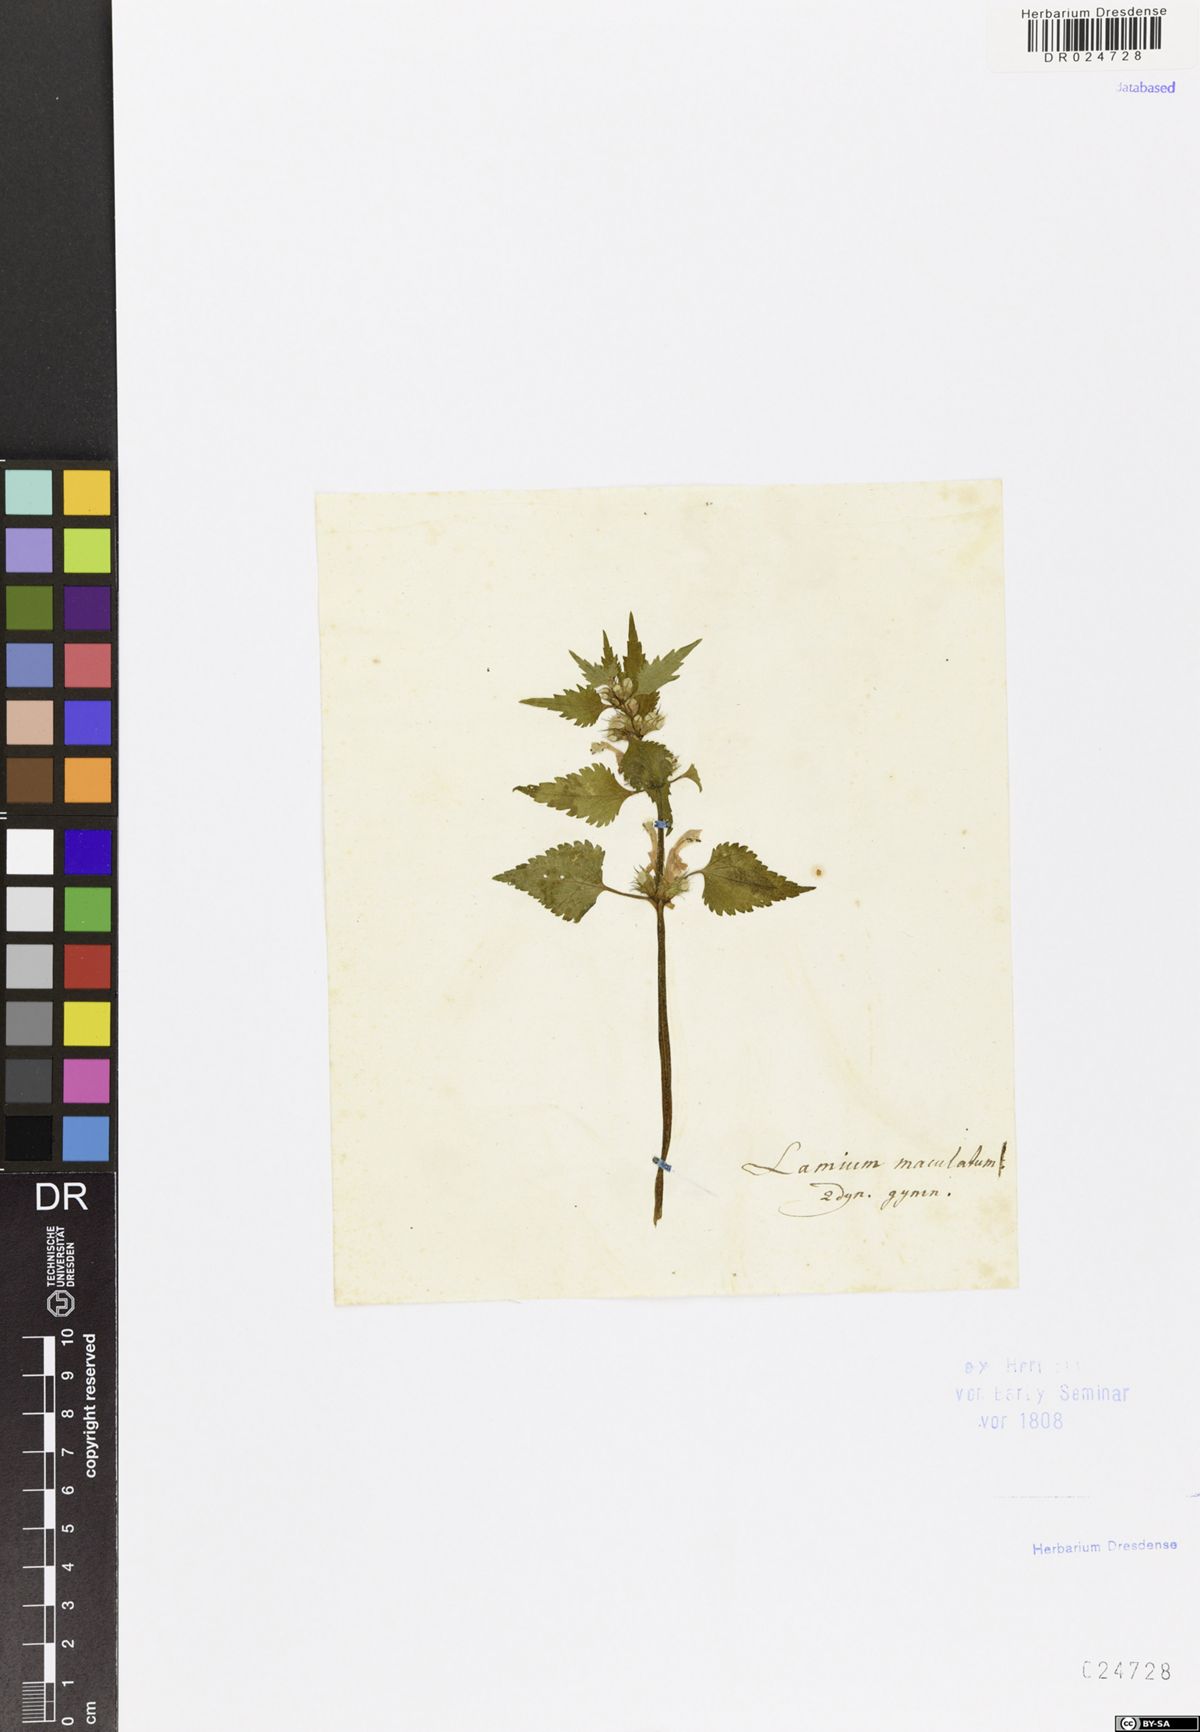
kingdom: Plantae
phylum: Tracheophyta
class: Magnoliopsida
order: Lamiales
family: Lamiaceae
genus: Lamium
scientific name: Lamium maculatum
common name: Spotted dead-nettle
